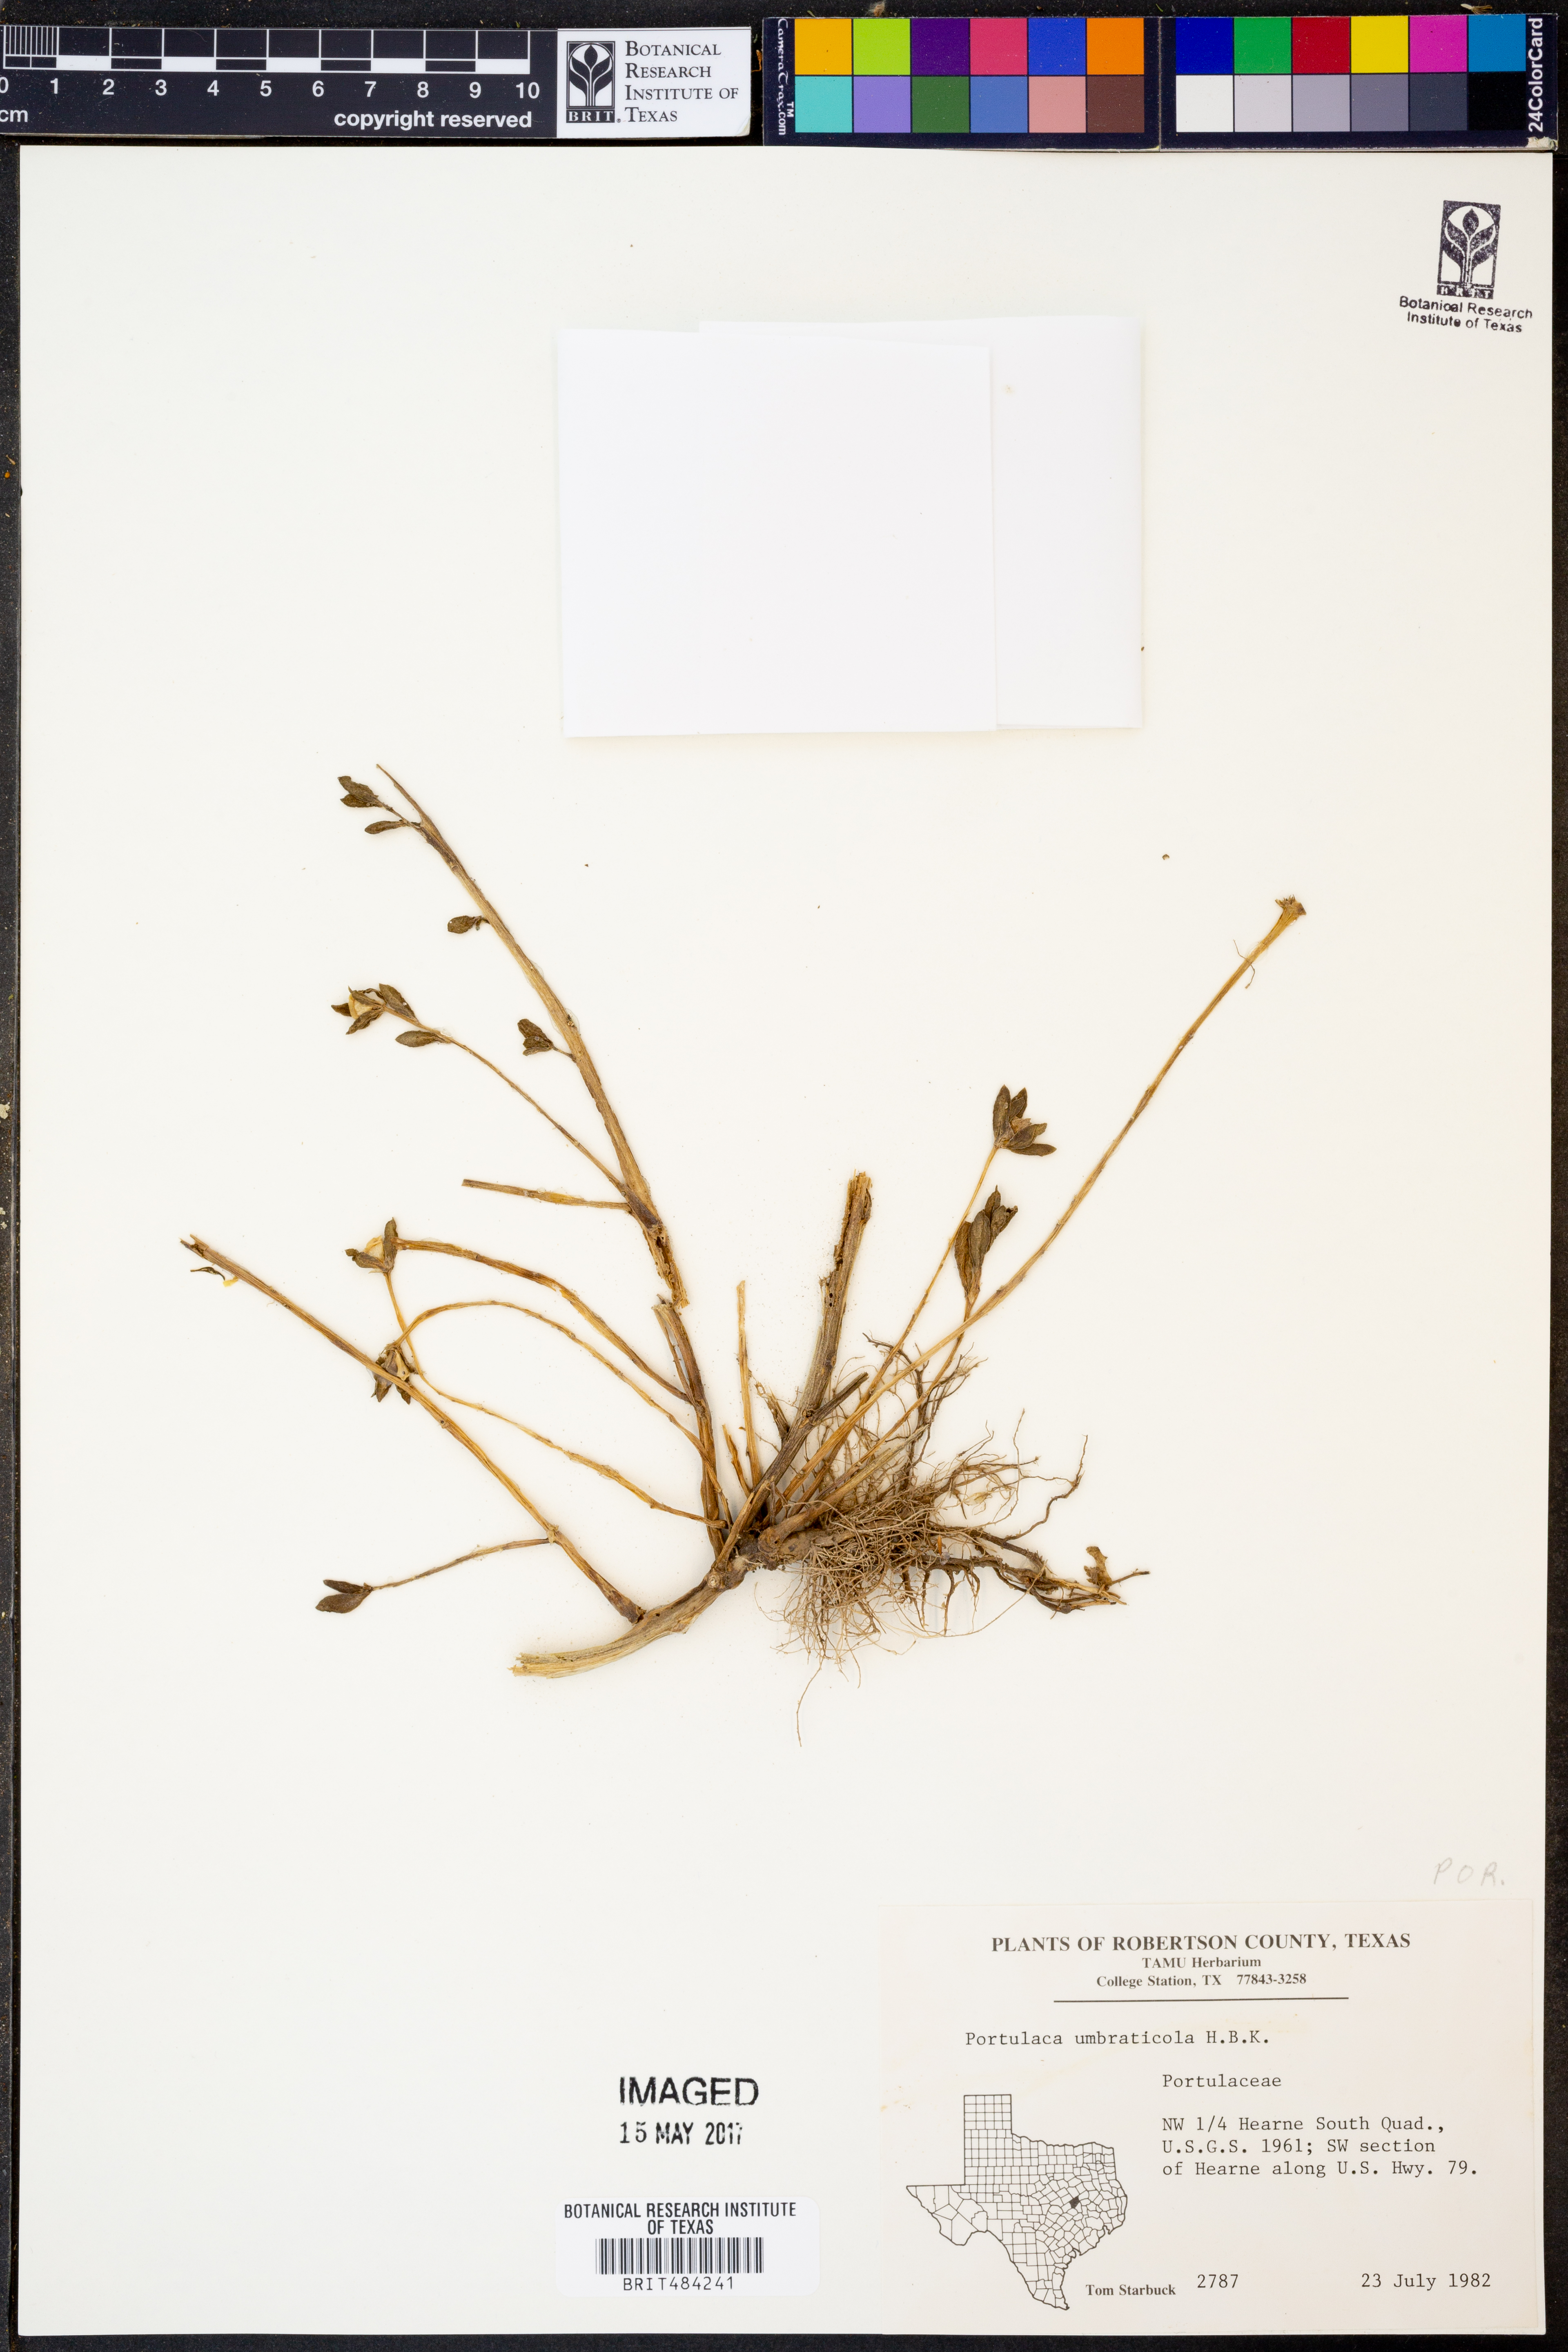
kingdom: Plantae
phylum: Tracheophyta
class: Magnoliopsida
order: Caryophyllales
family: Portulacaceae
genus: Portulaca
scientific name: Portulaca umbraticola
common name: Wingpod purslane
